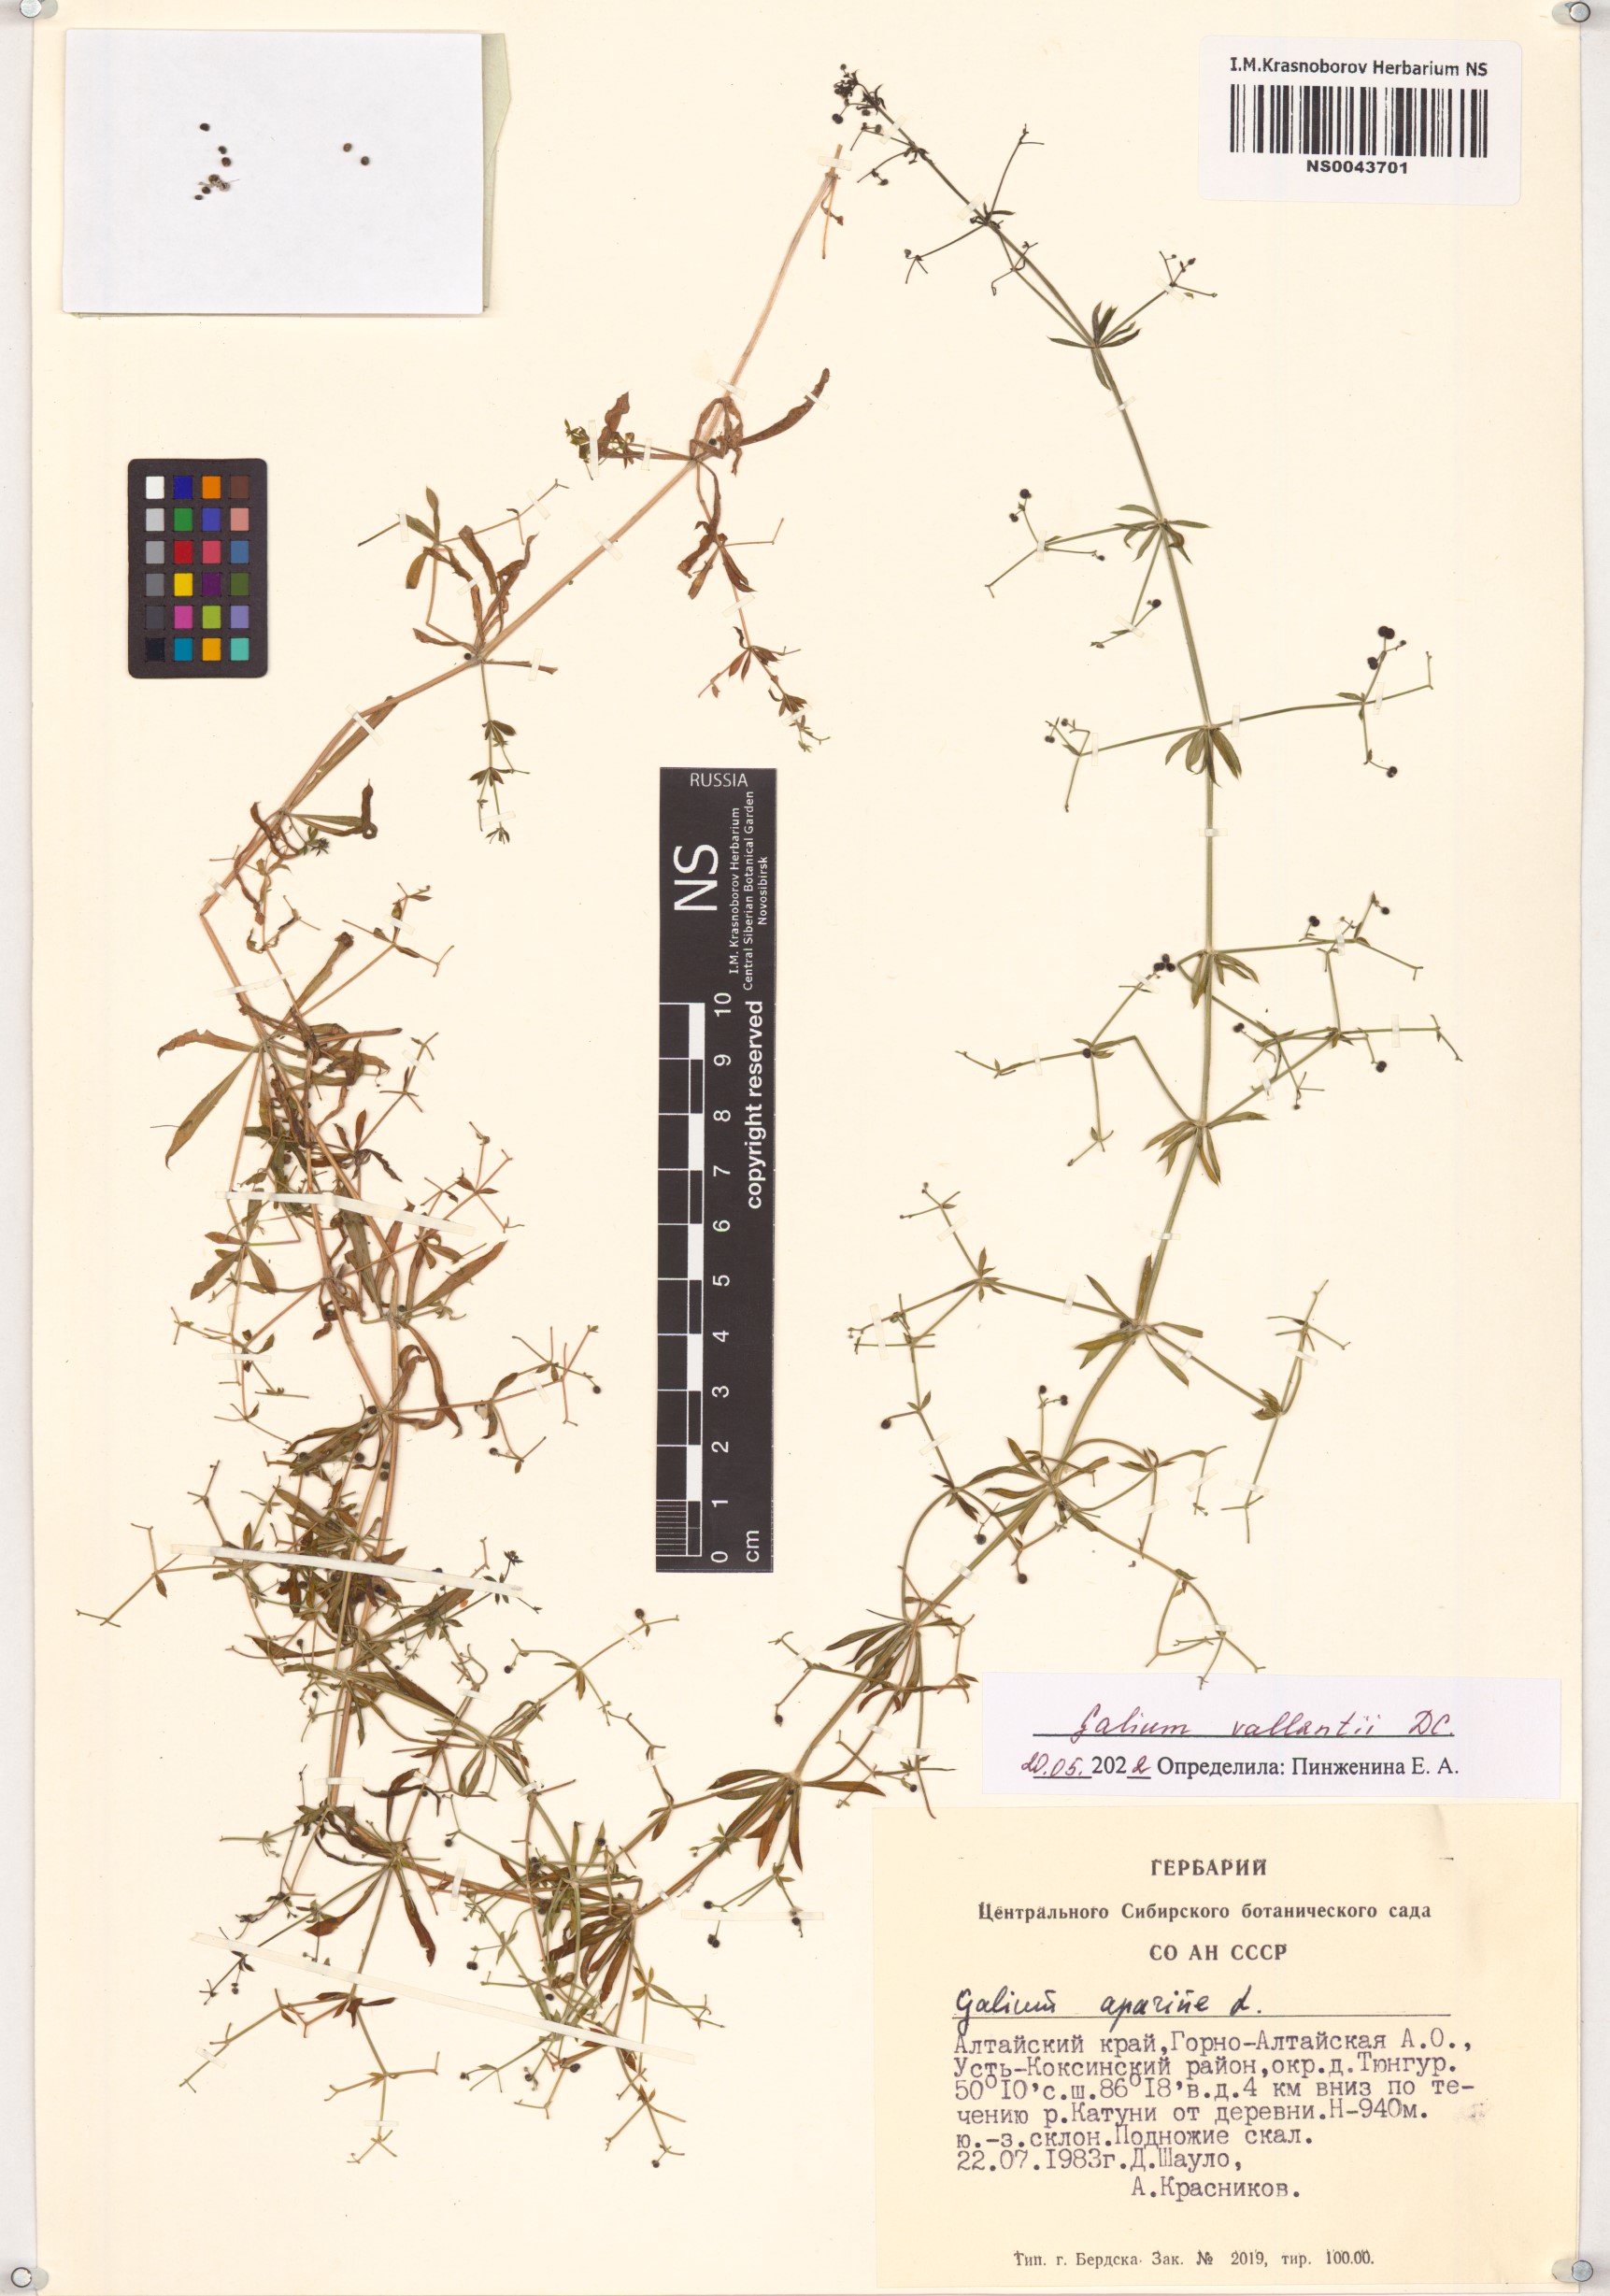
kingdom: Plantae
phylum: Tracheophyta
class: Magnoliopsida
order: Gentianales
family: Rubiaceae
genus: Galium
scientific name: Galium spurium
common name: False cleavers
